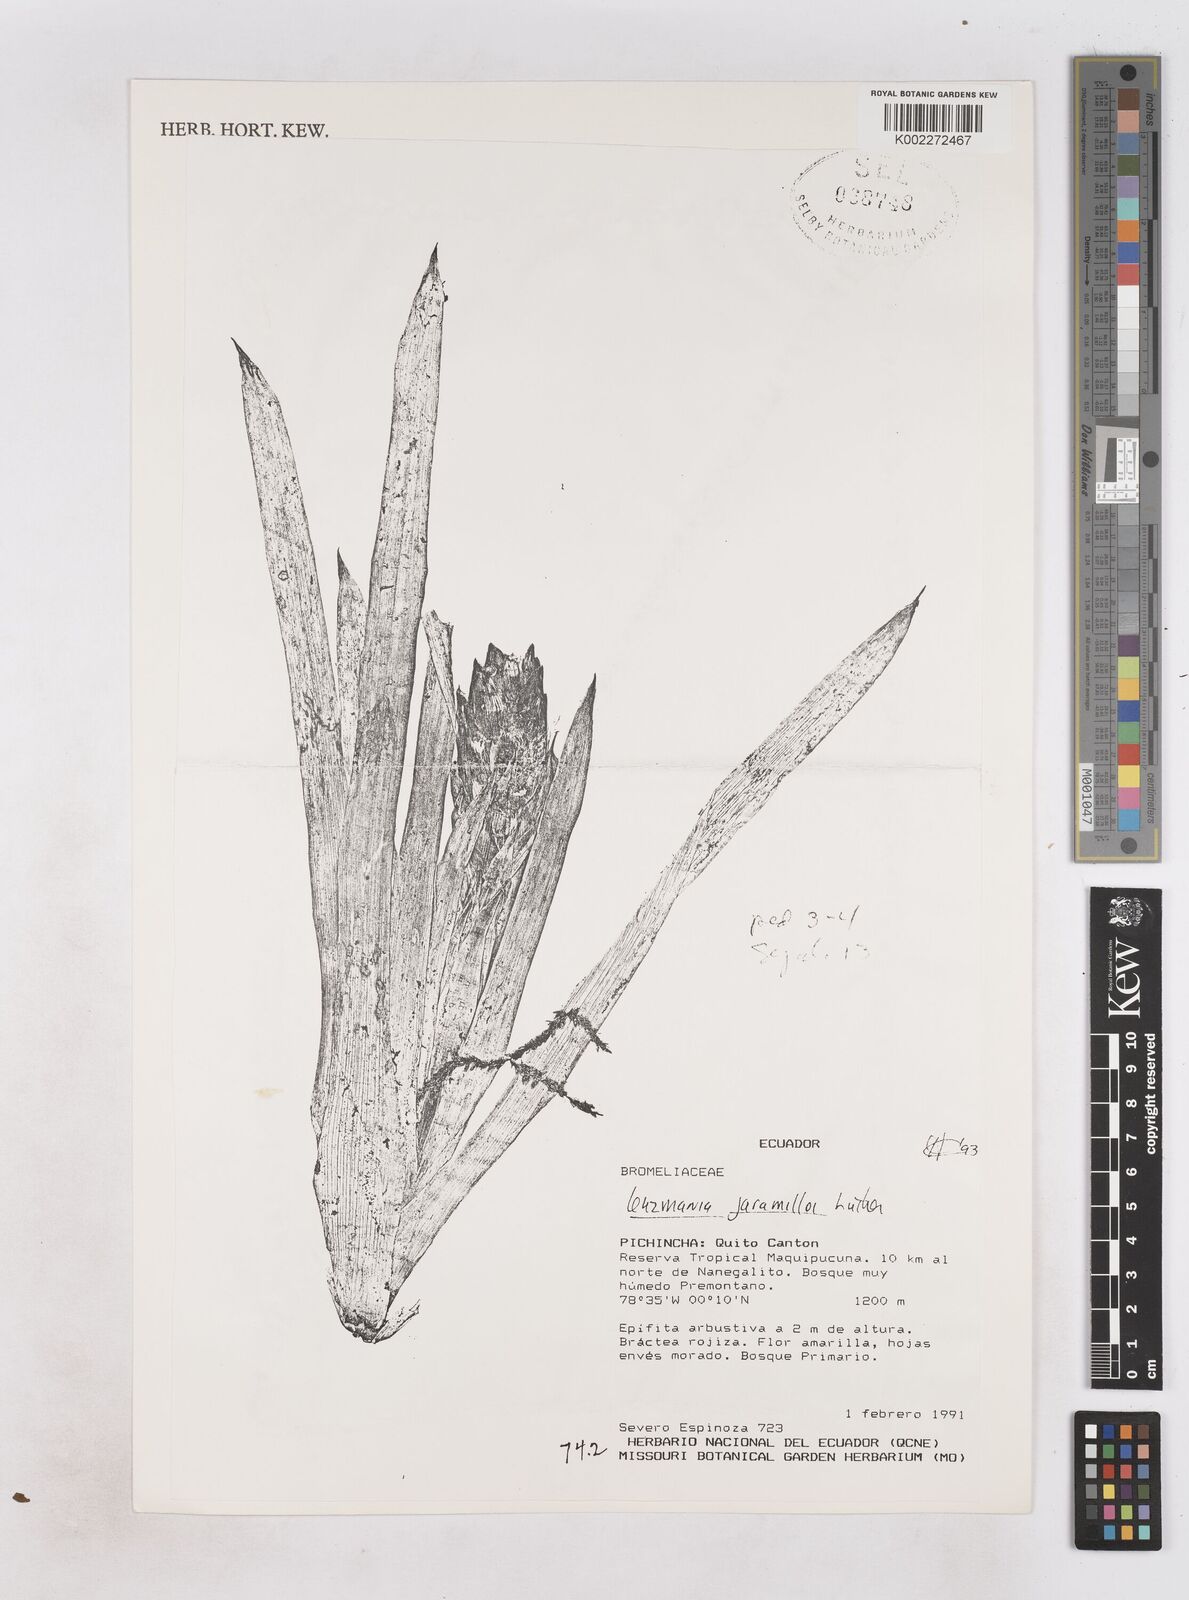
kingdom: Plantae
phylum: Tracheophyta
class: Liliopsida
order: Poales
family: Bromeliaceae
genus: Guzmania
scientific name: Guzmania jaramilloi
